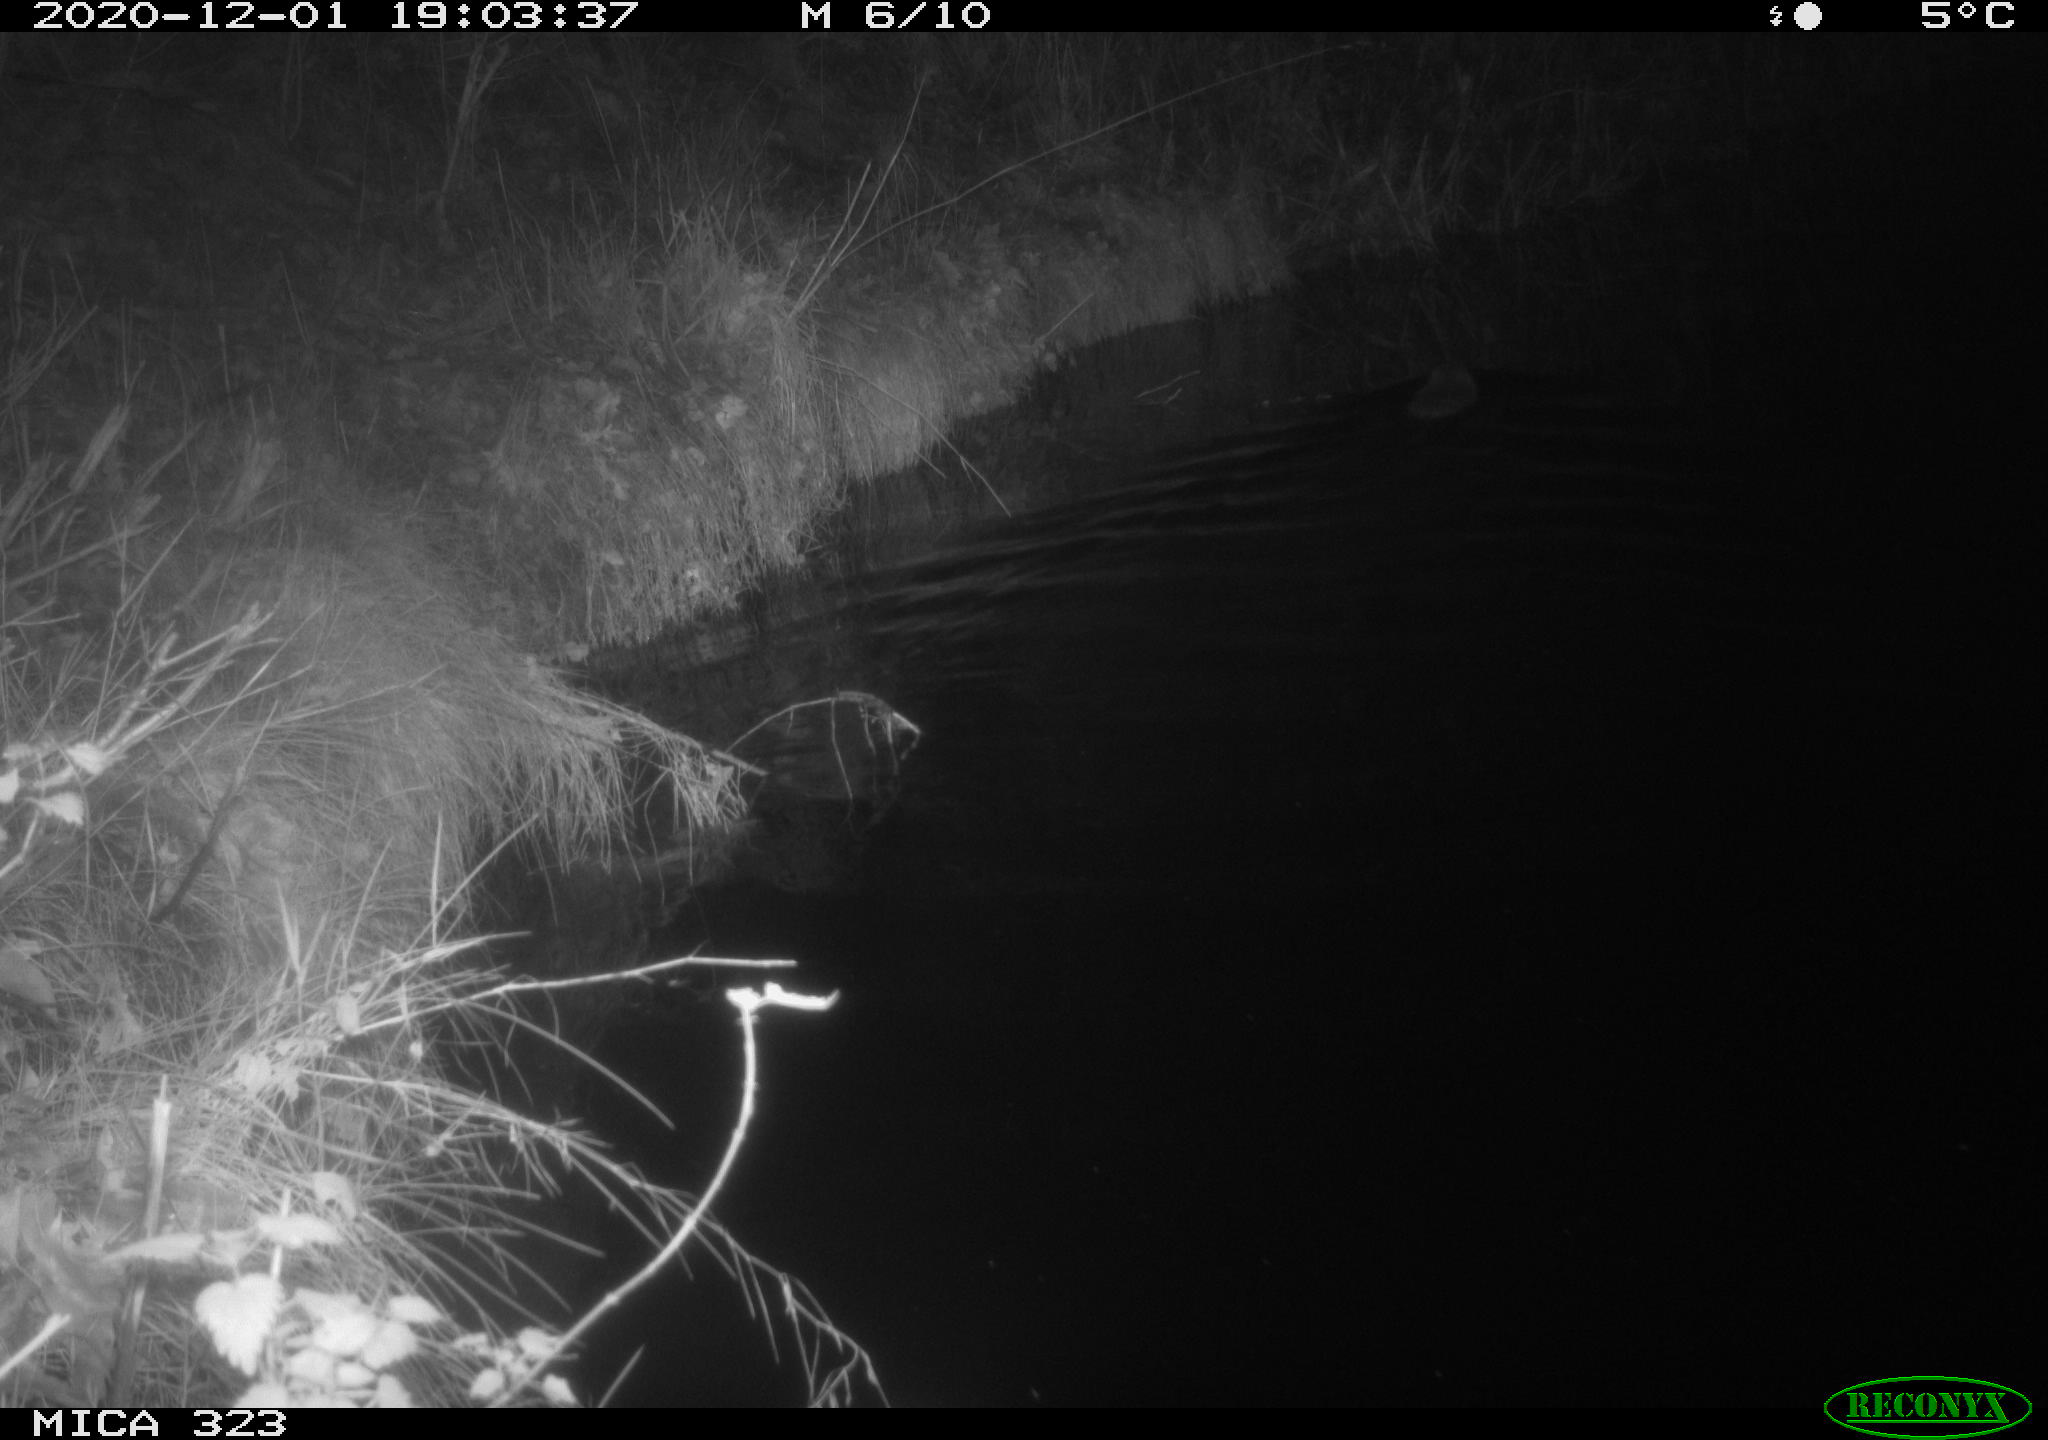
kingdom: Animalia
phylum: Chordata
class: Mammalia
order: Rodentia
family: Myocastoridae
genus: Myocastor
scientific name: Myocastor coypus
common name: Coypu
